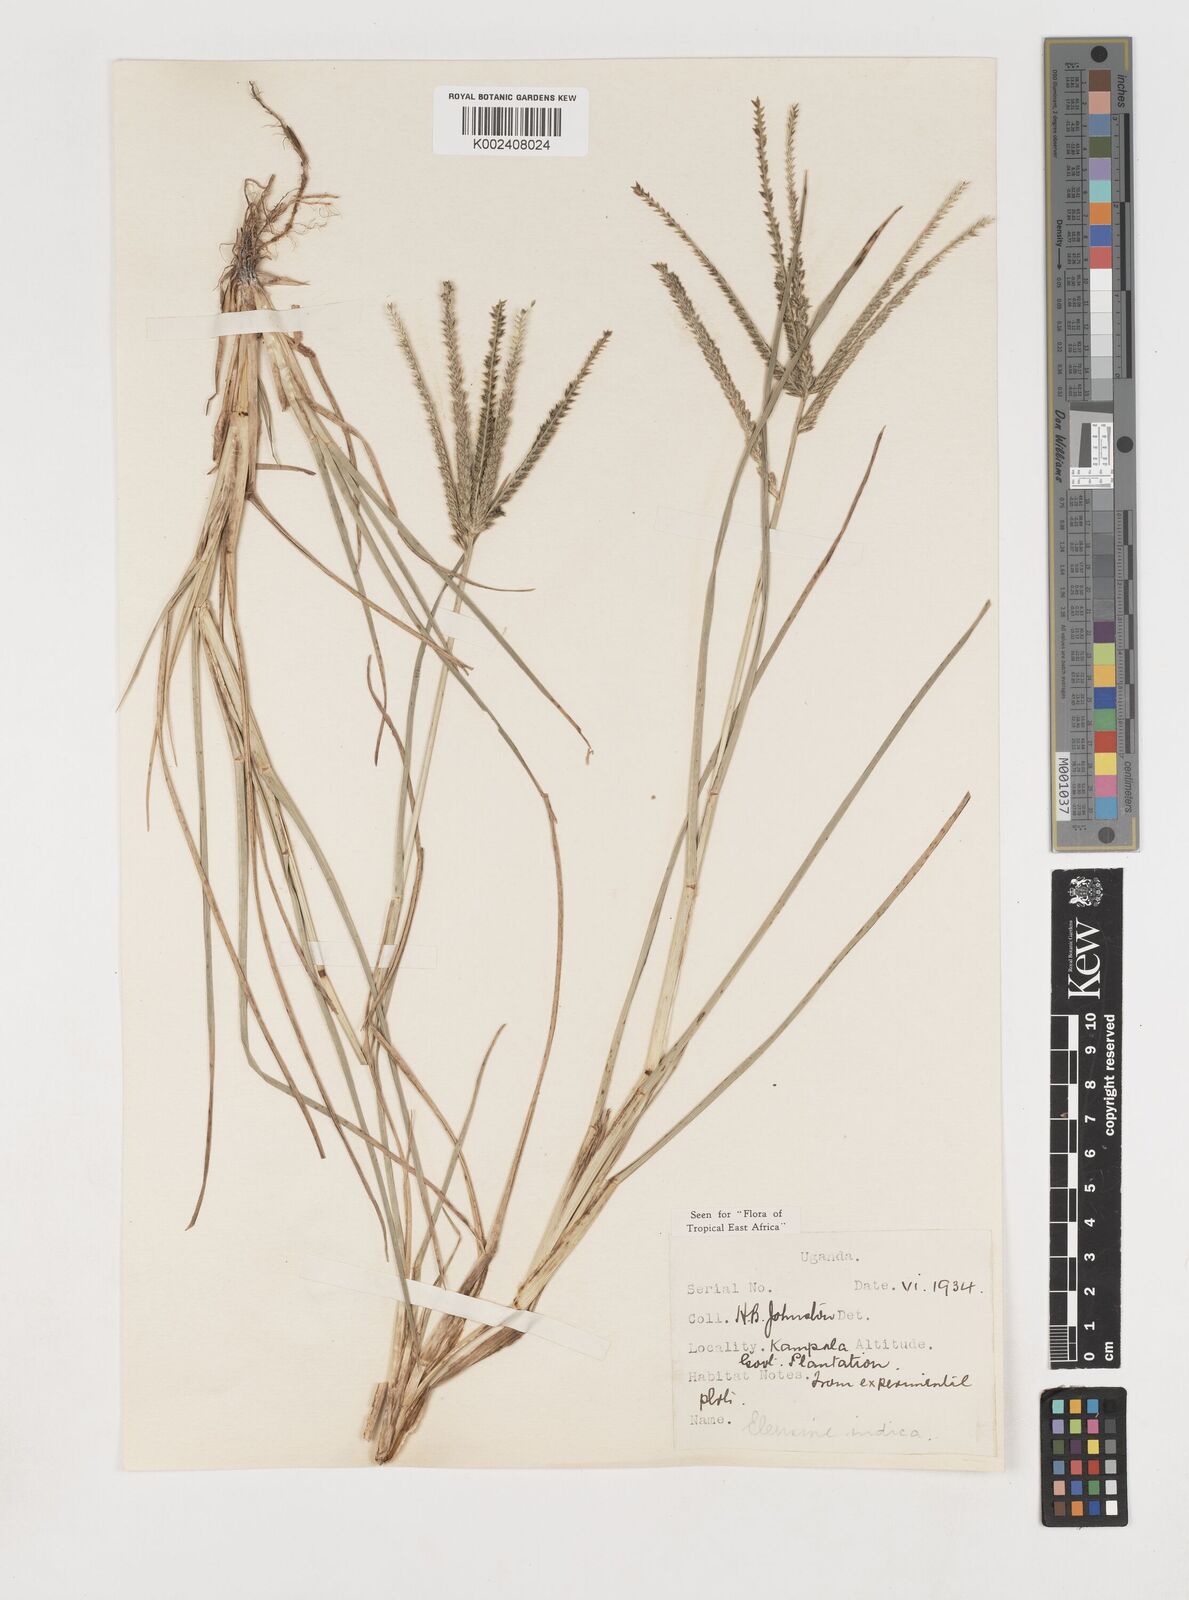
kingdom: Plantae
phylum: Tracheophyta
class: Liliopsida
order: Poales
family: Poaceae
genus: Eleusine
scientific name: Eleusine indica
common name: Yard-grass
